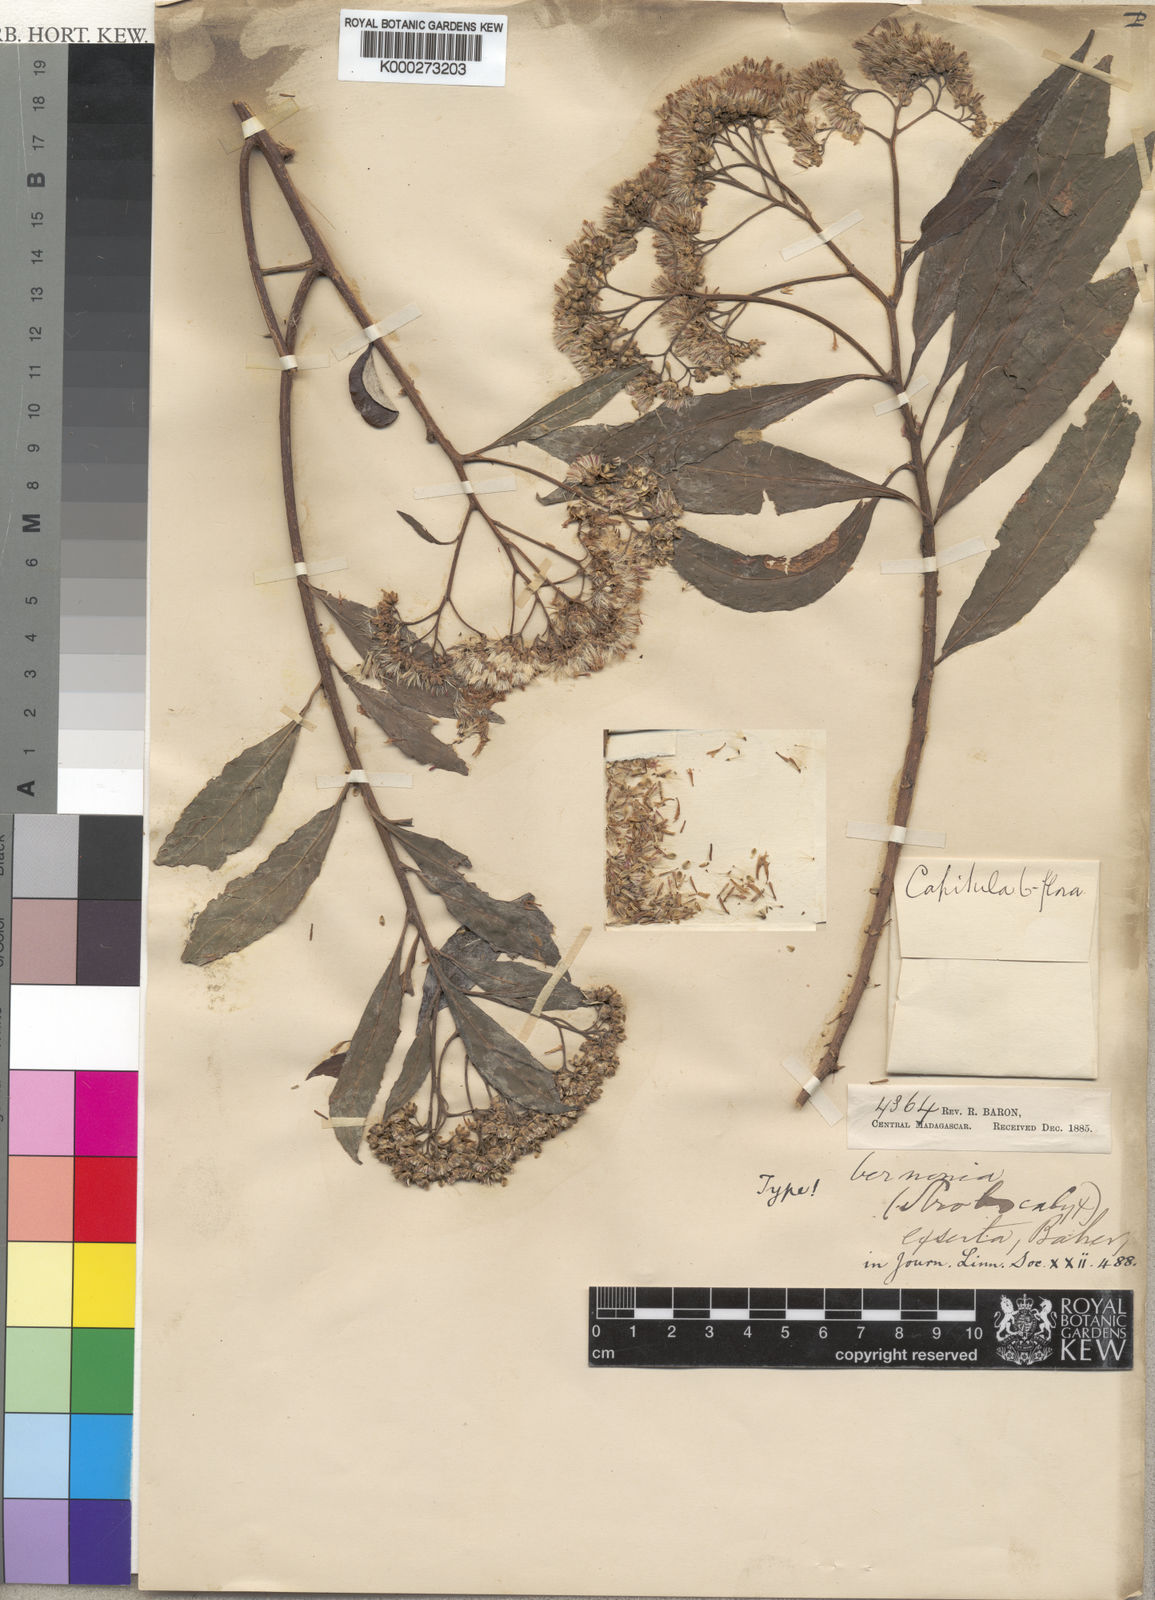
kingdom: Plantae
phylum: Tracheophyta
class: Magnoliopsida
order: Asterales
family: Asteraceae
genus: Gymnanthemum
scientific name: Gymnanthemum exsertum
